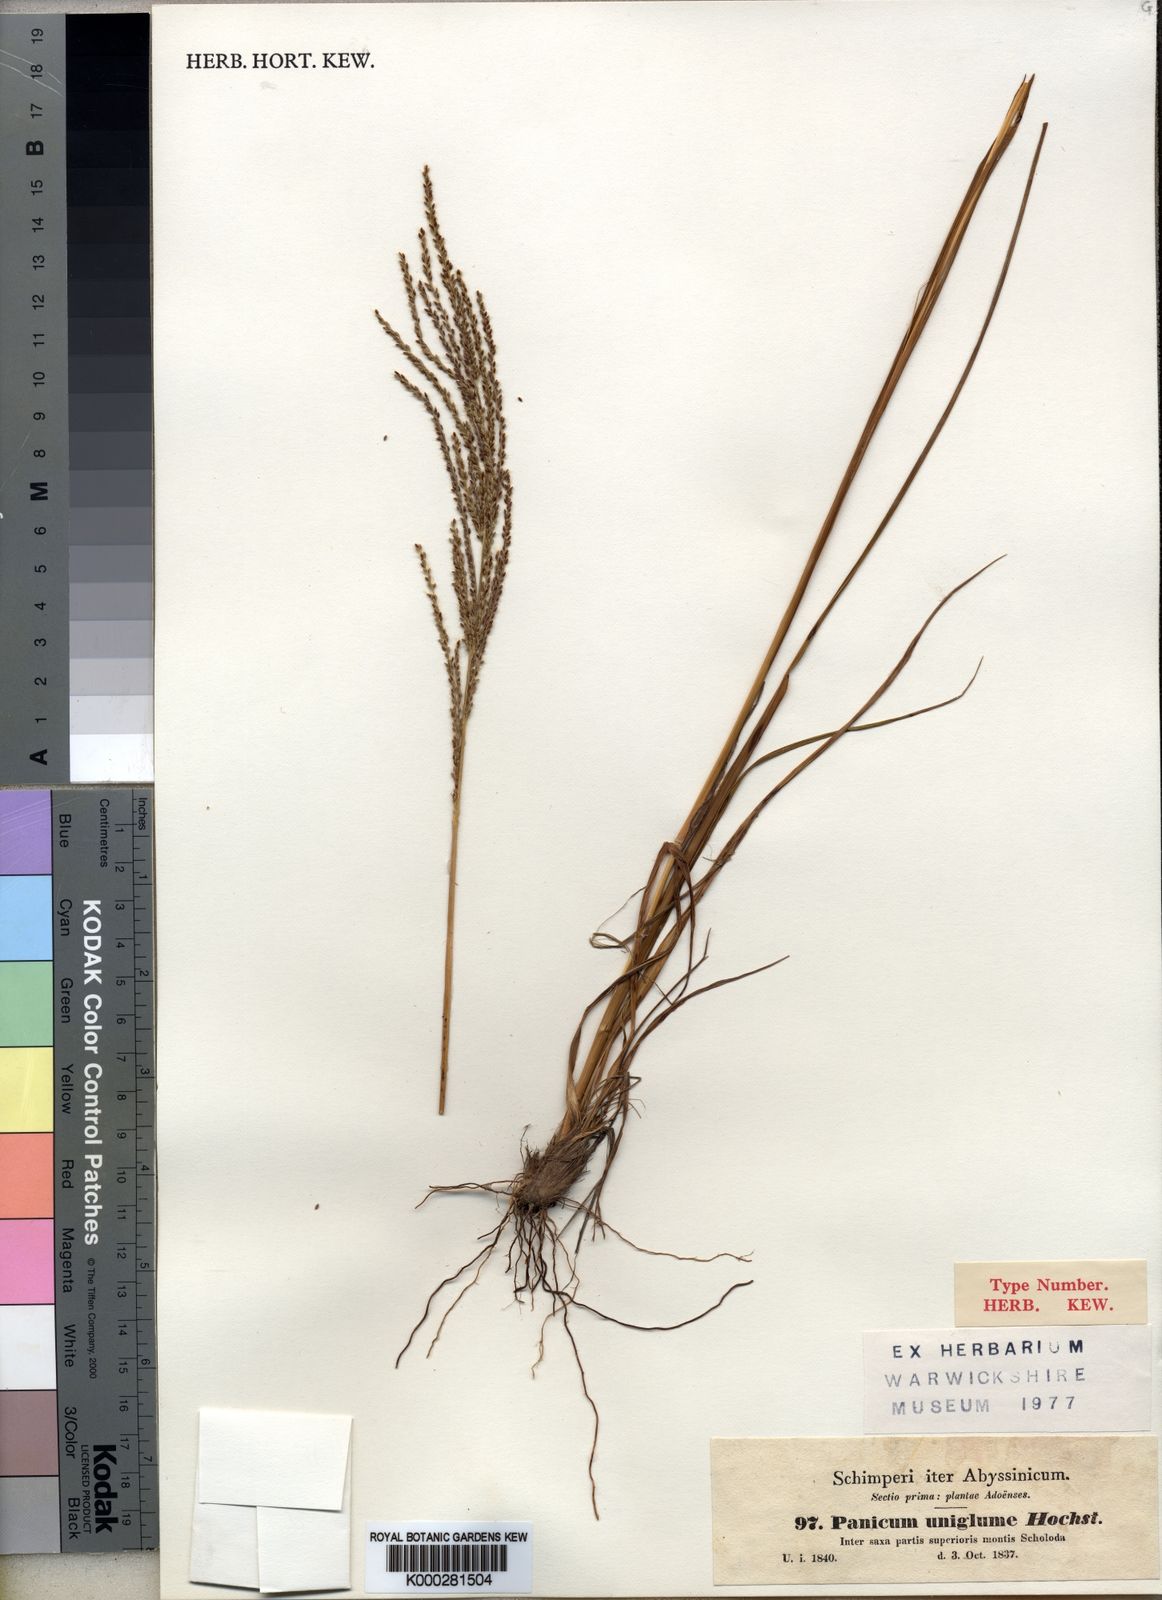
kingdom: Plantae
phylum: Tracheophyta
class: Liliopsida
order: Poales
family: Poaceae
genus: Digitaria
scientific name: Digitaria diagonalis
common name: Brown-seed finger grass
